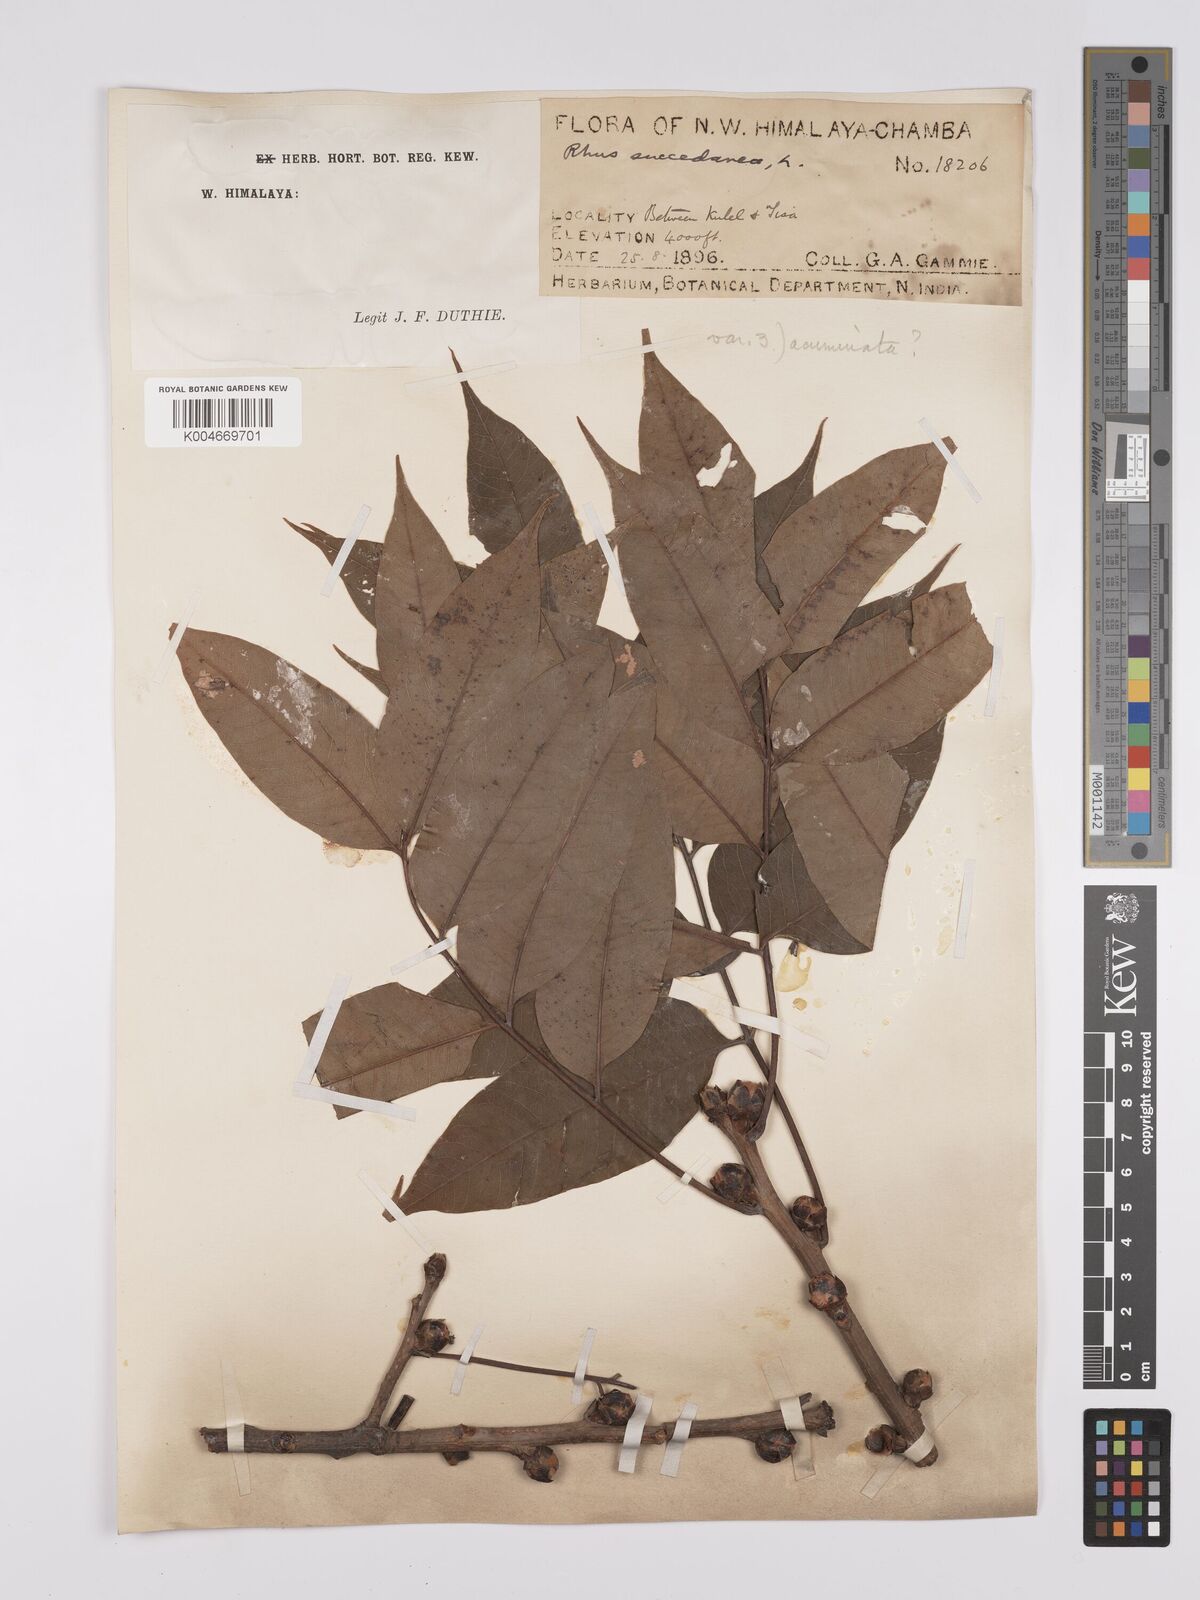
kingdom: Plantae
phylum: Tracheophyta
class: Magnoliopsida
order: Sapindales
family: Anacardiaceae
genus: Toxicodendron
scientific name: Toxicodendron succedaneum
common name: Wax tree
